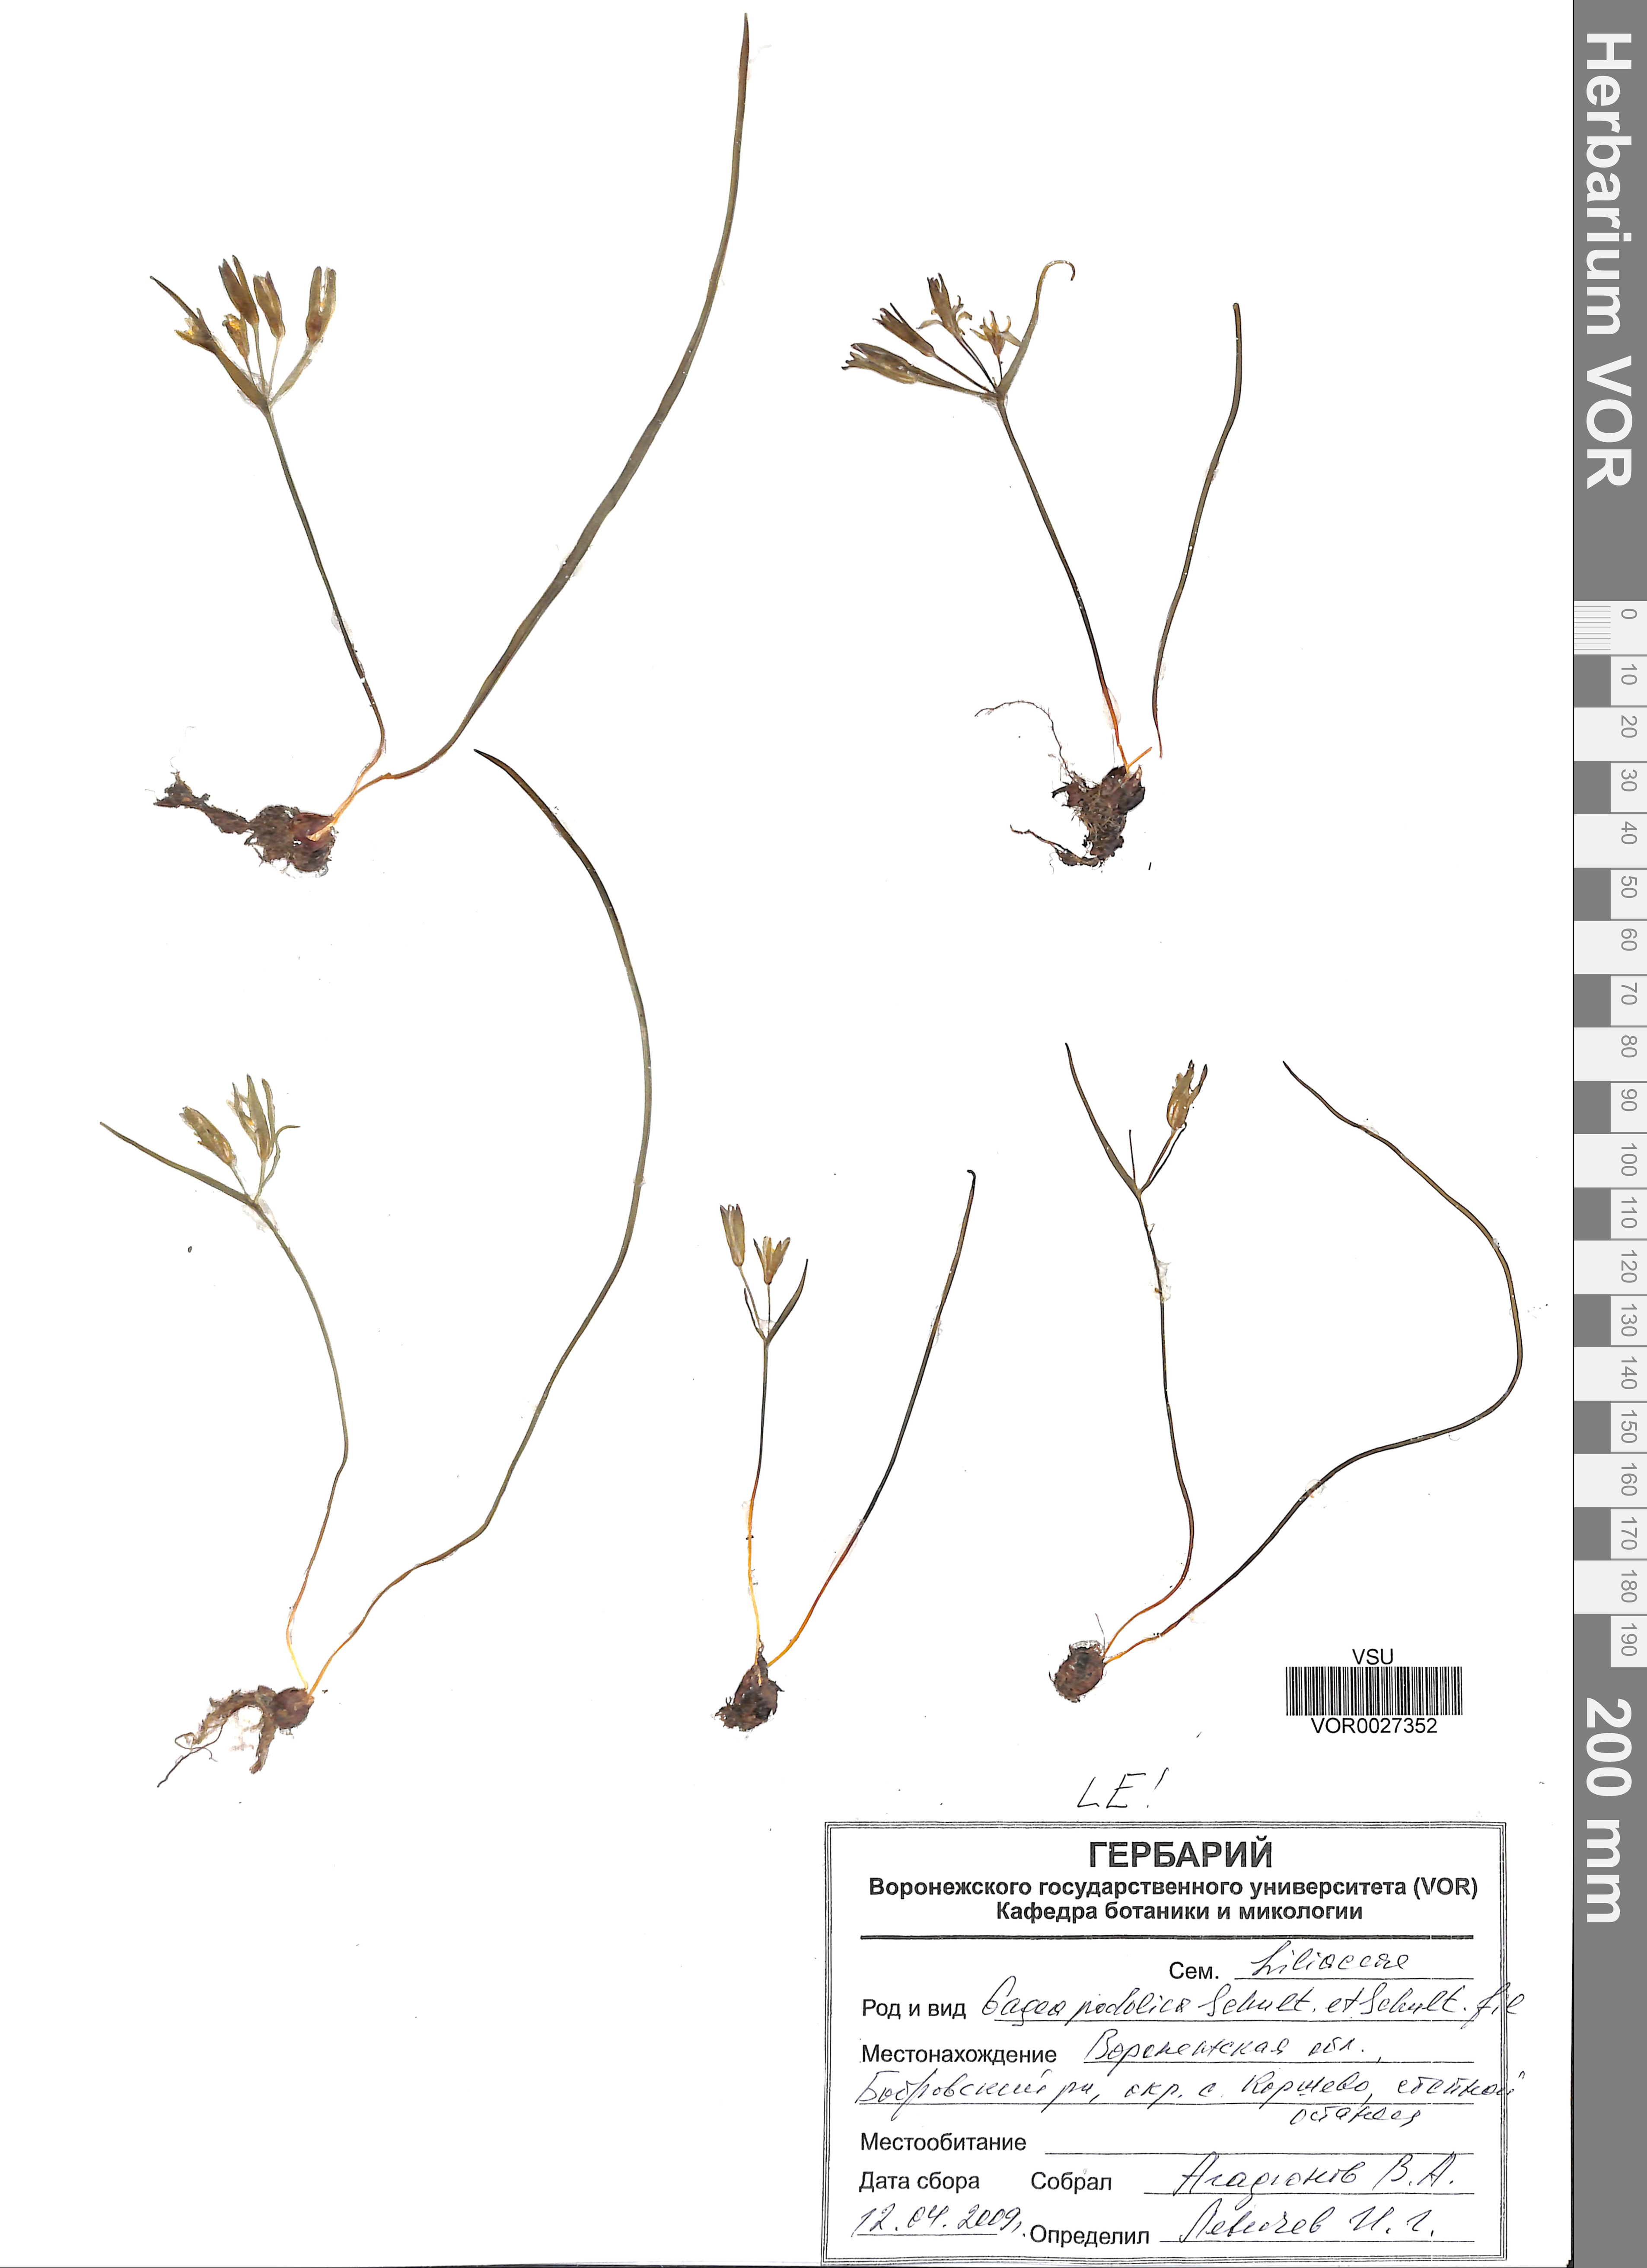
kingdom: Plantae
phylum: Tracheophyta
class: Liliopsida
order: Liliales
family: Liliaceae
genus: Gagea
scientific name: Gagea podolica
